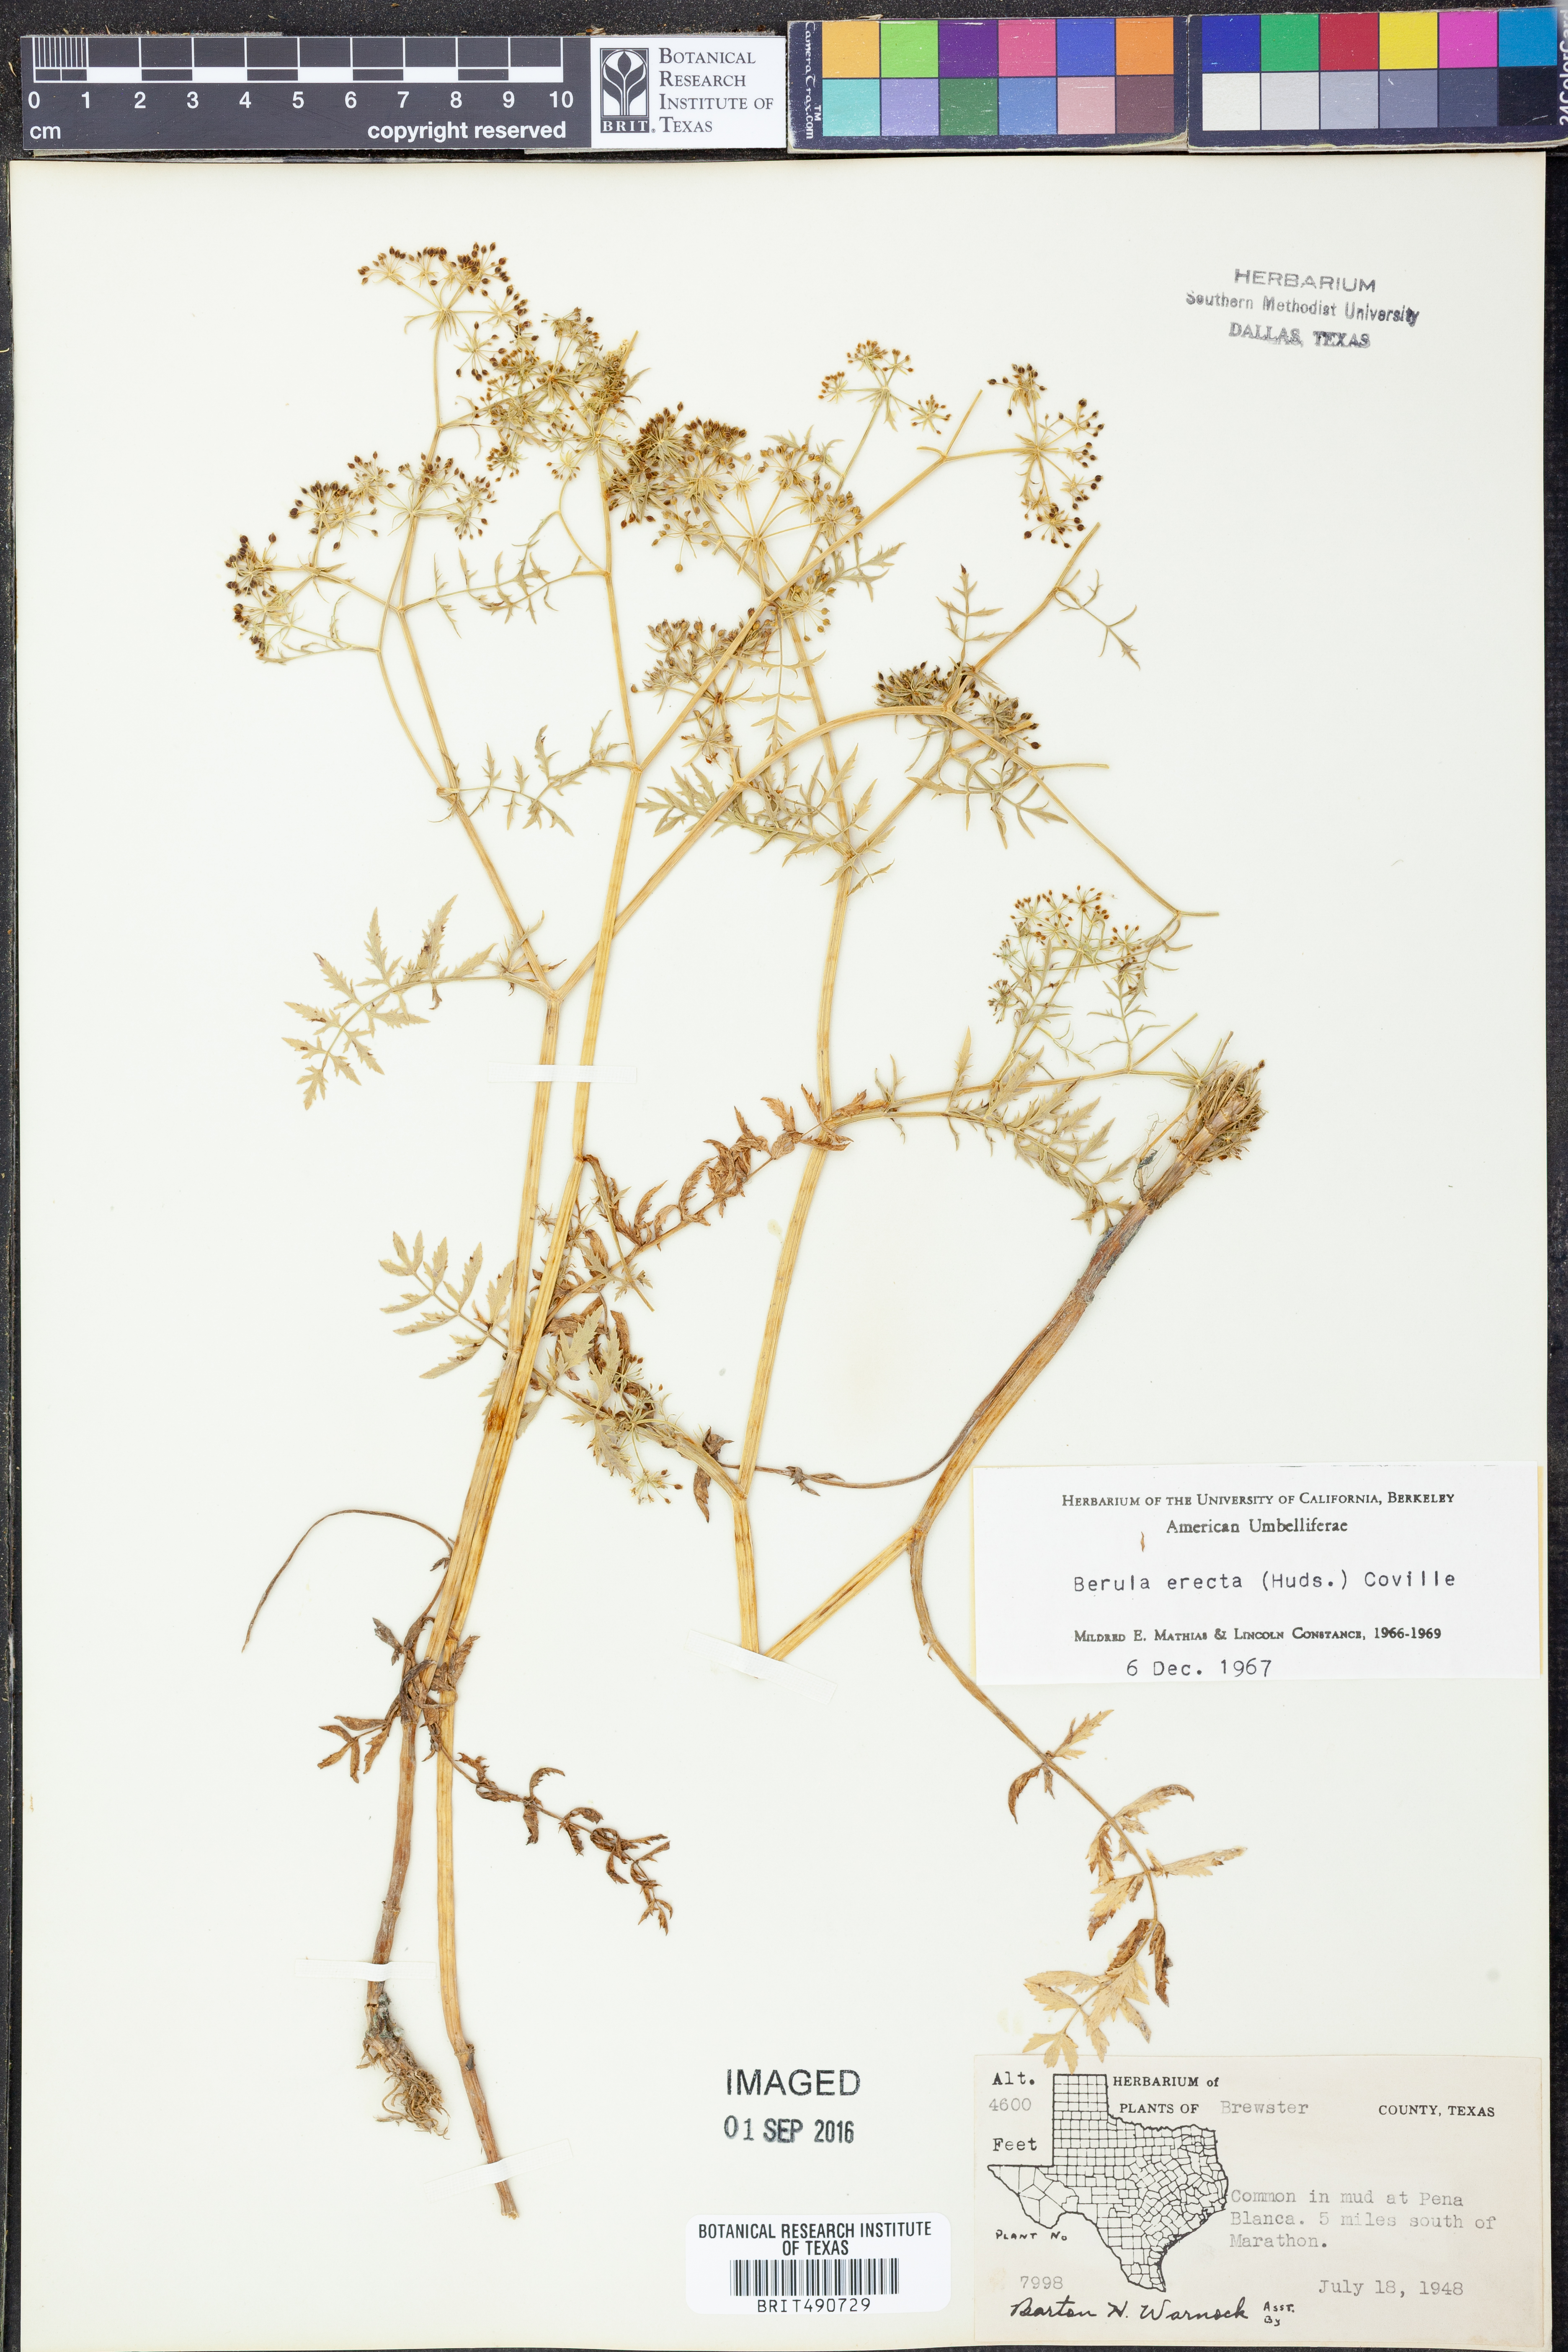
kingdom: Plantae
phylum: Tracheophyta
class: Magnoliopsida
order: Apiales
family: Apiaceae
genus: Berula
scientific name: Berula erecta
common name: Lesser water-parsnip
